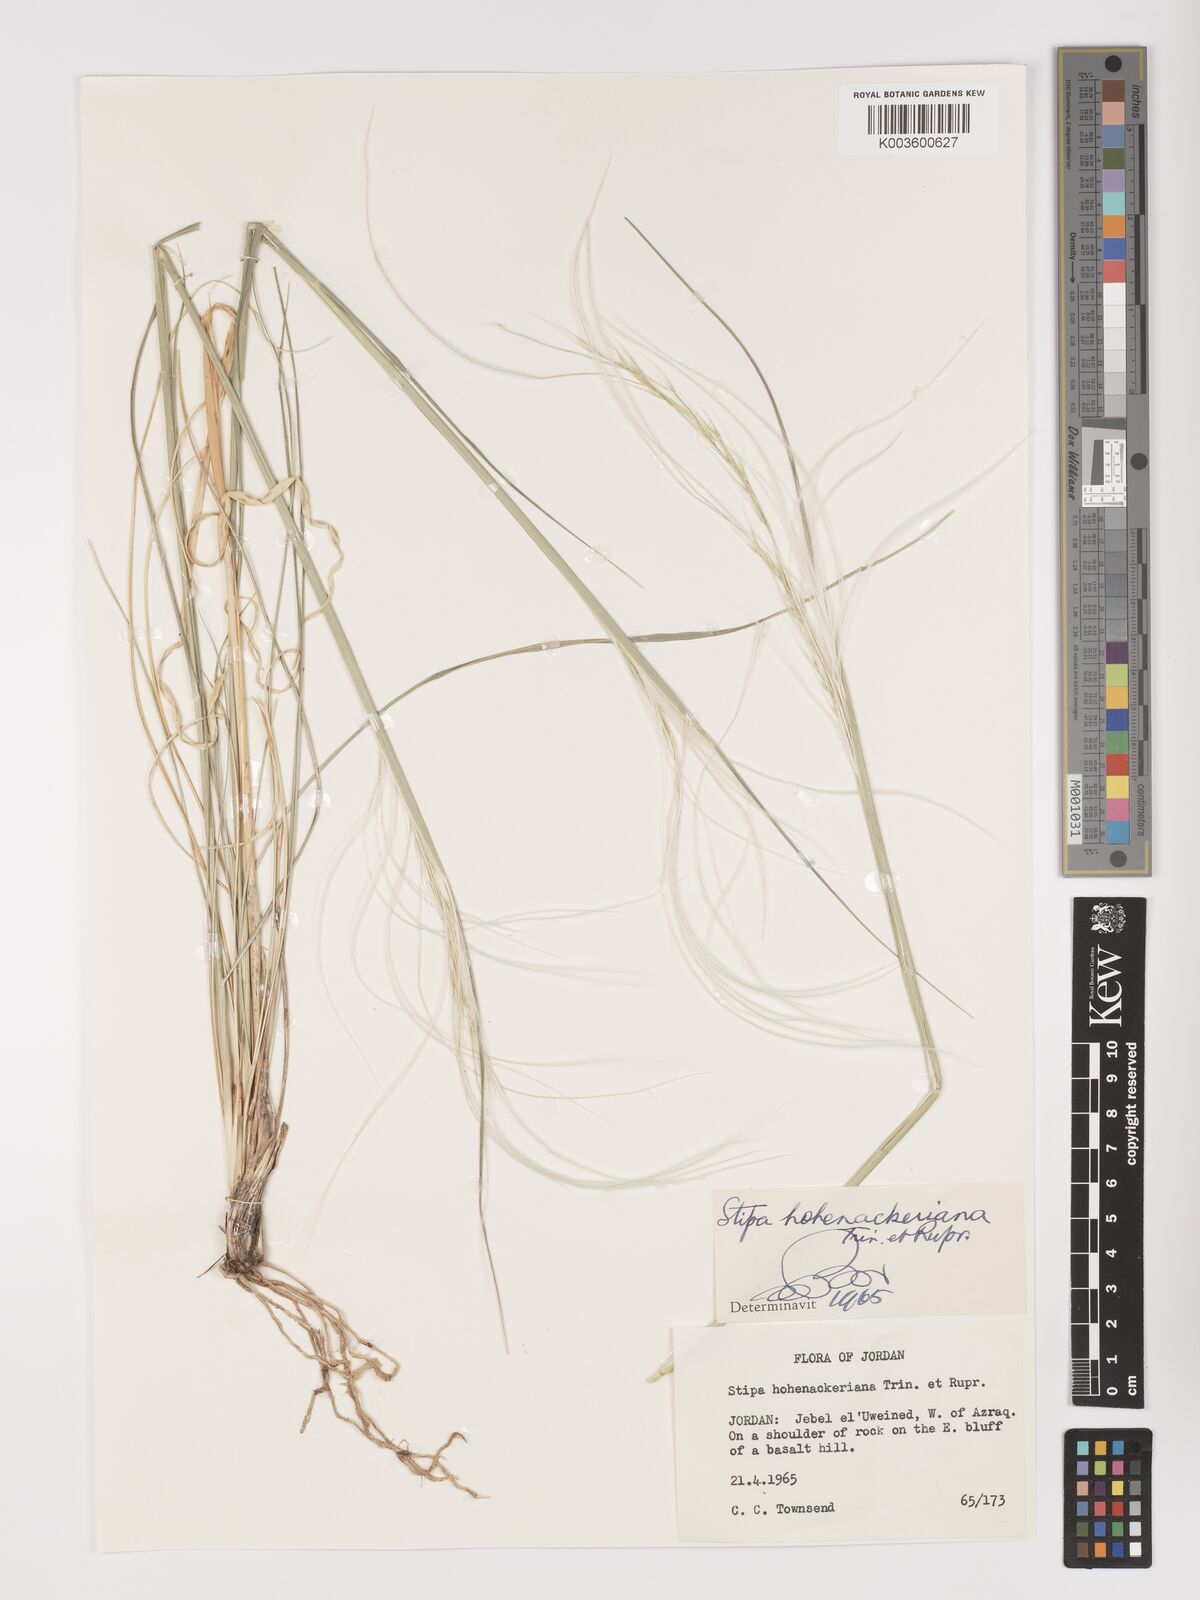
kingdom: Plantae
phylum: Tracheophyta
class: Liliopsida
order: Poales
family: Poaceae
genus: Stipa
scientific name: Stipa hohenackeriana
